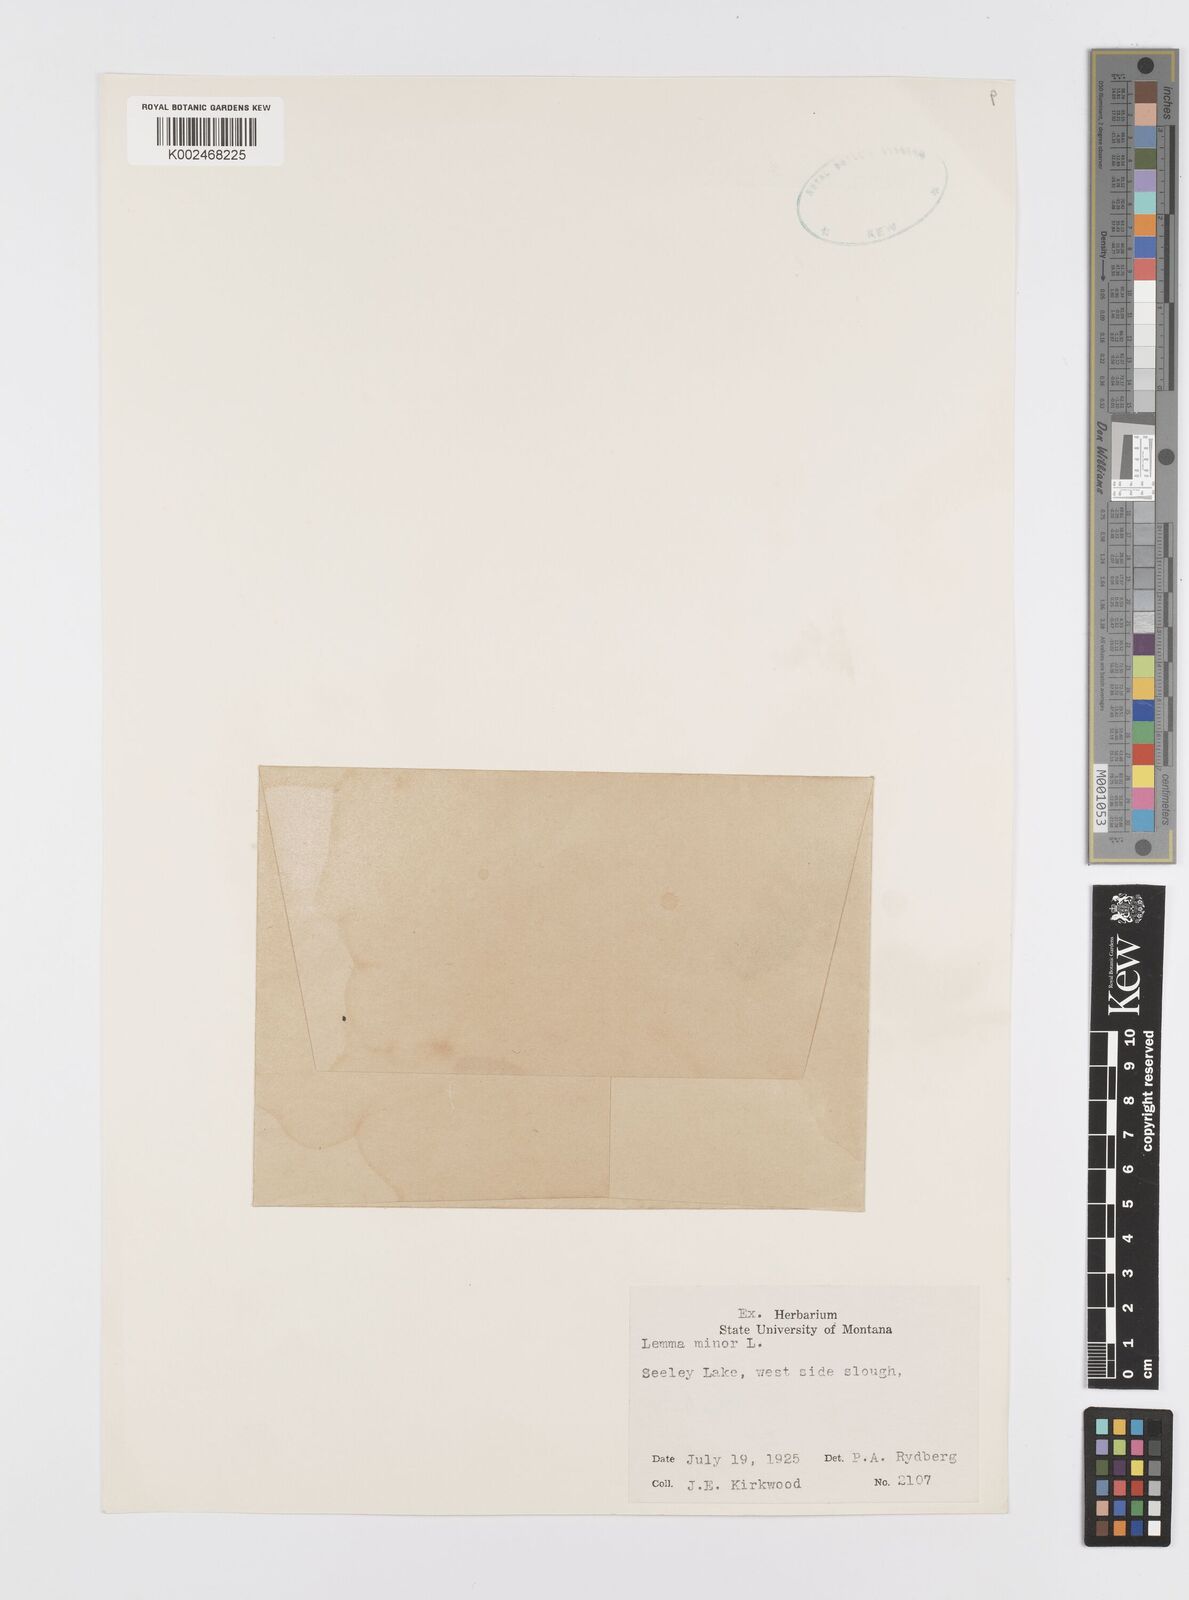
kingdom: Plantae
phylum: Tracheophyta
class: Liliopsida
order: Alismatales
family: Araceae
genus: Lemna
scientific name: Lemna minor
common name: Common duckweed
